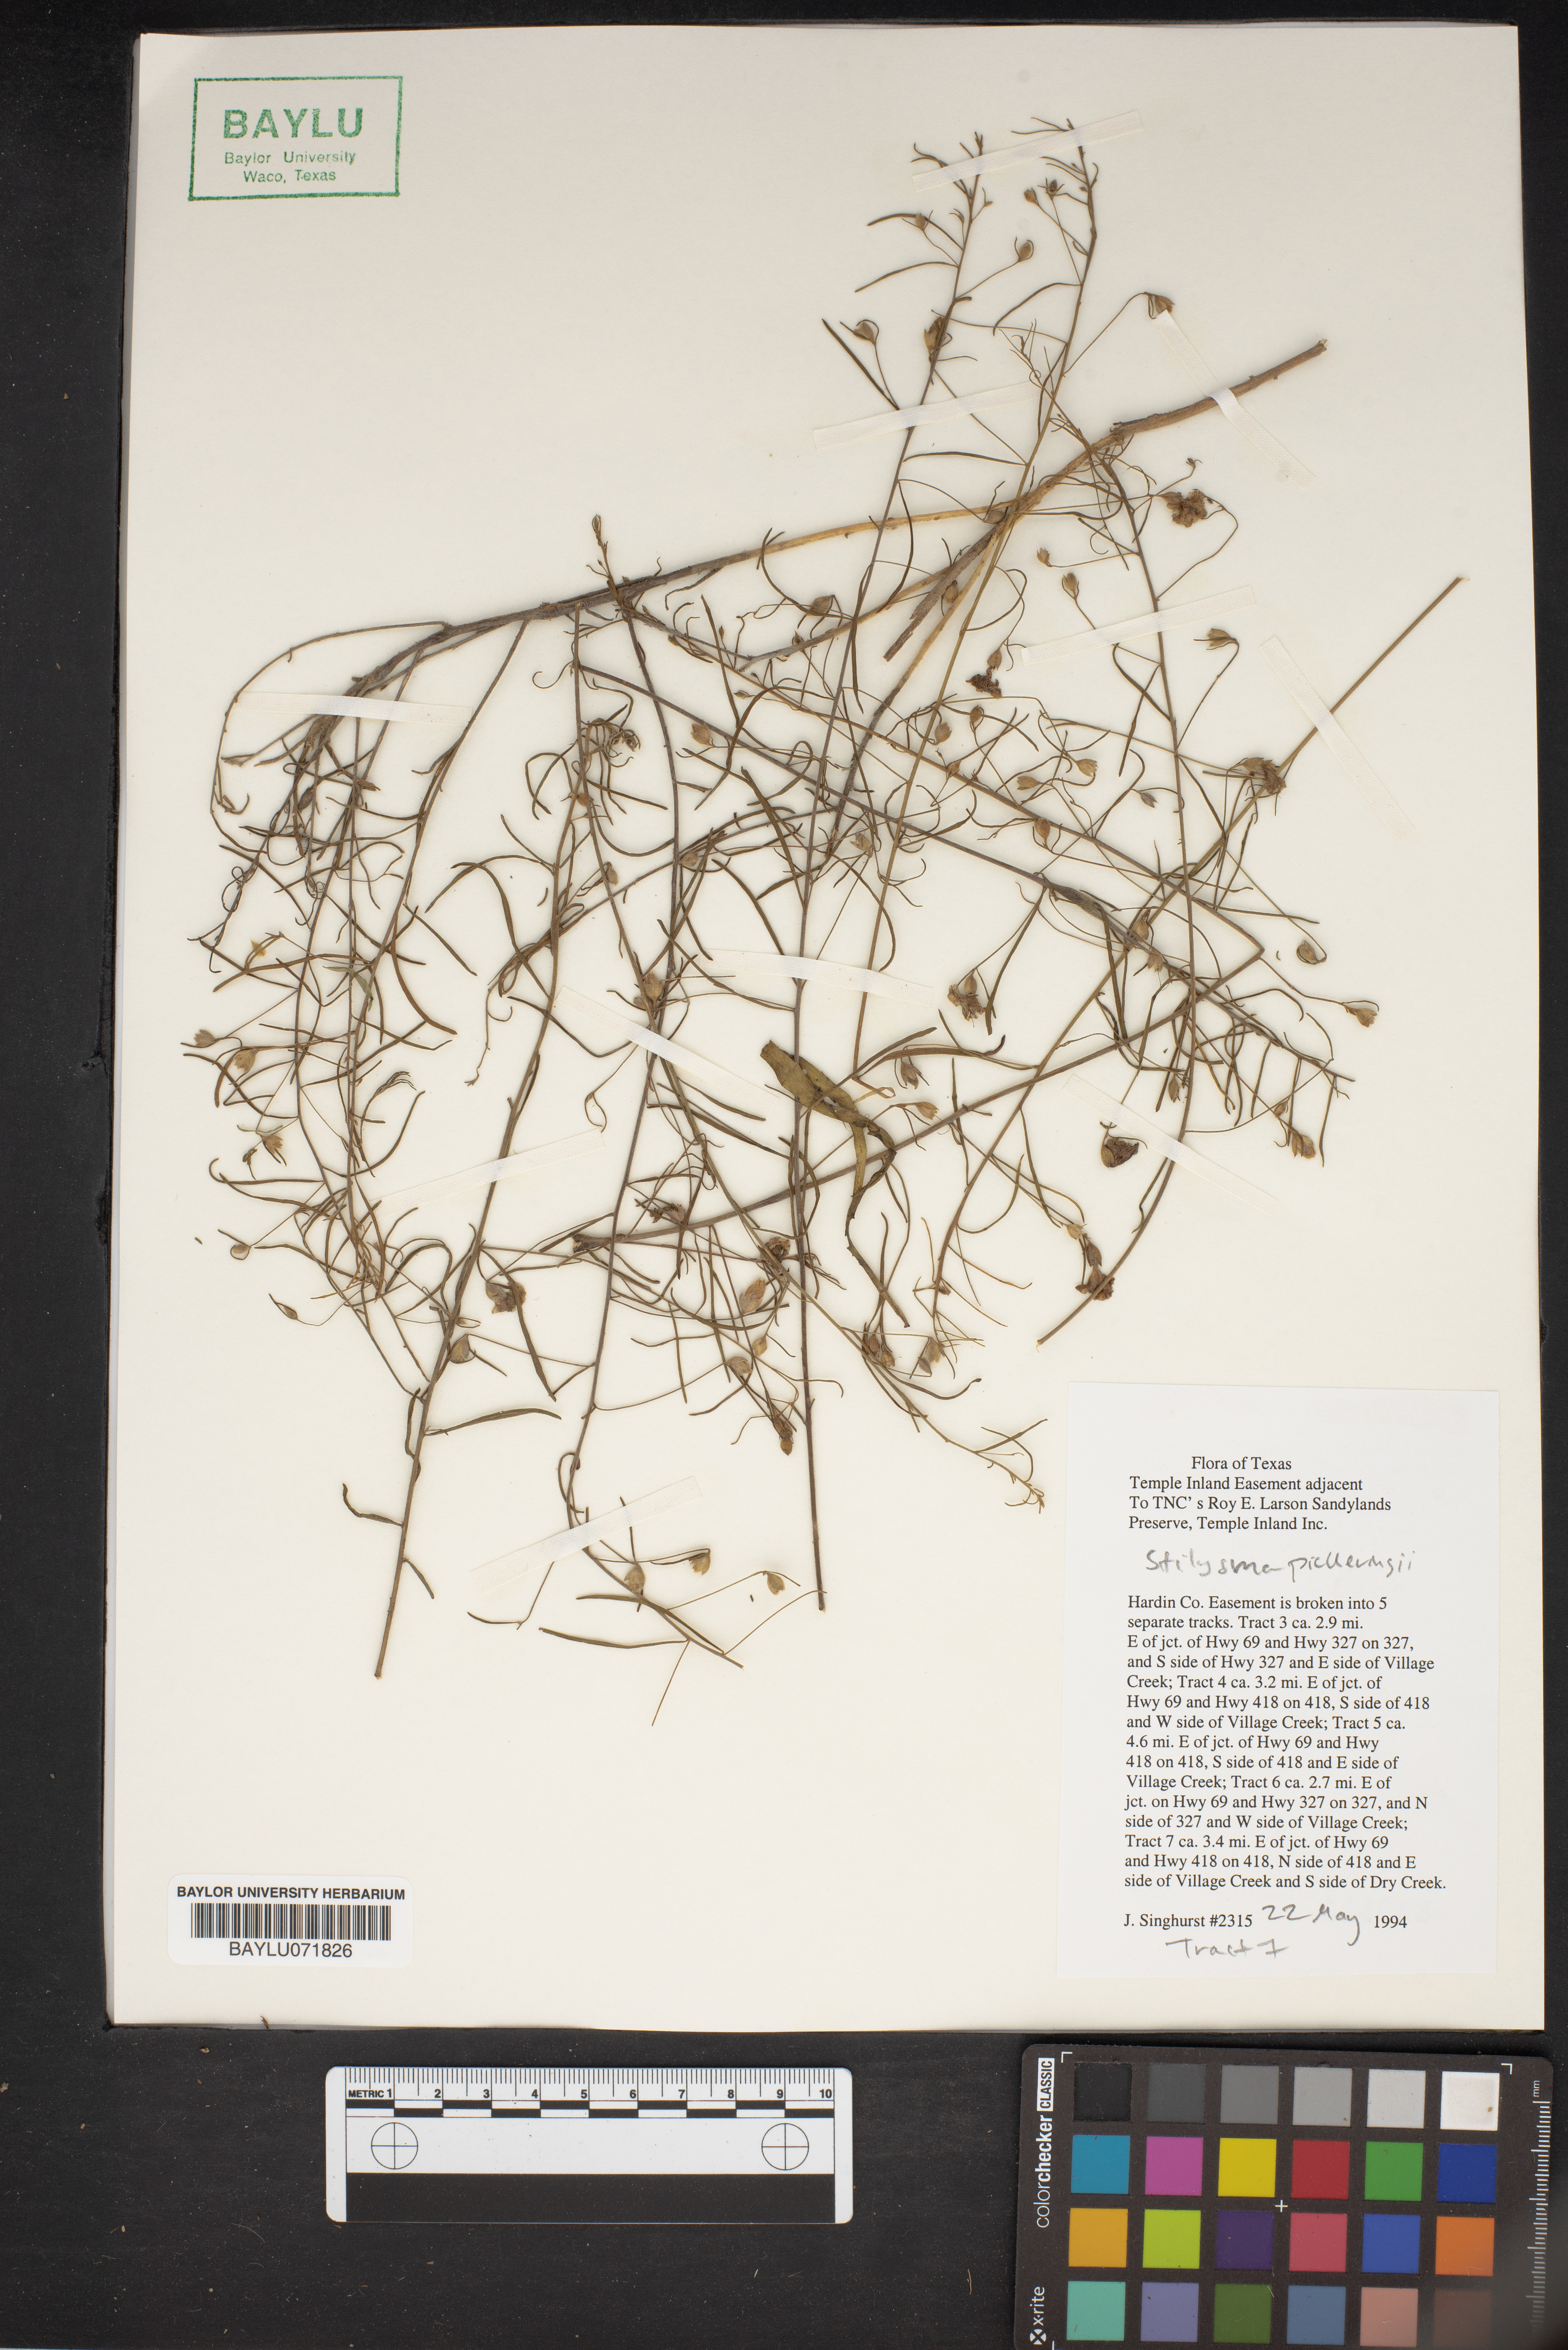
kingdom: Plantae
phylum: Tracheophyta
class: Magnoliopsida
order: Solanales
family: Convolvulaceae
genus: Stylisma
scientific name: Stylisma pickeringii
